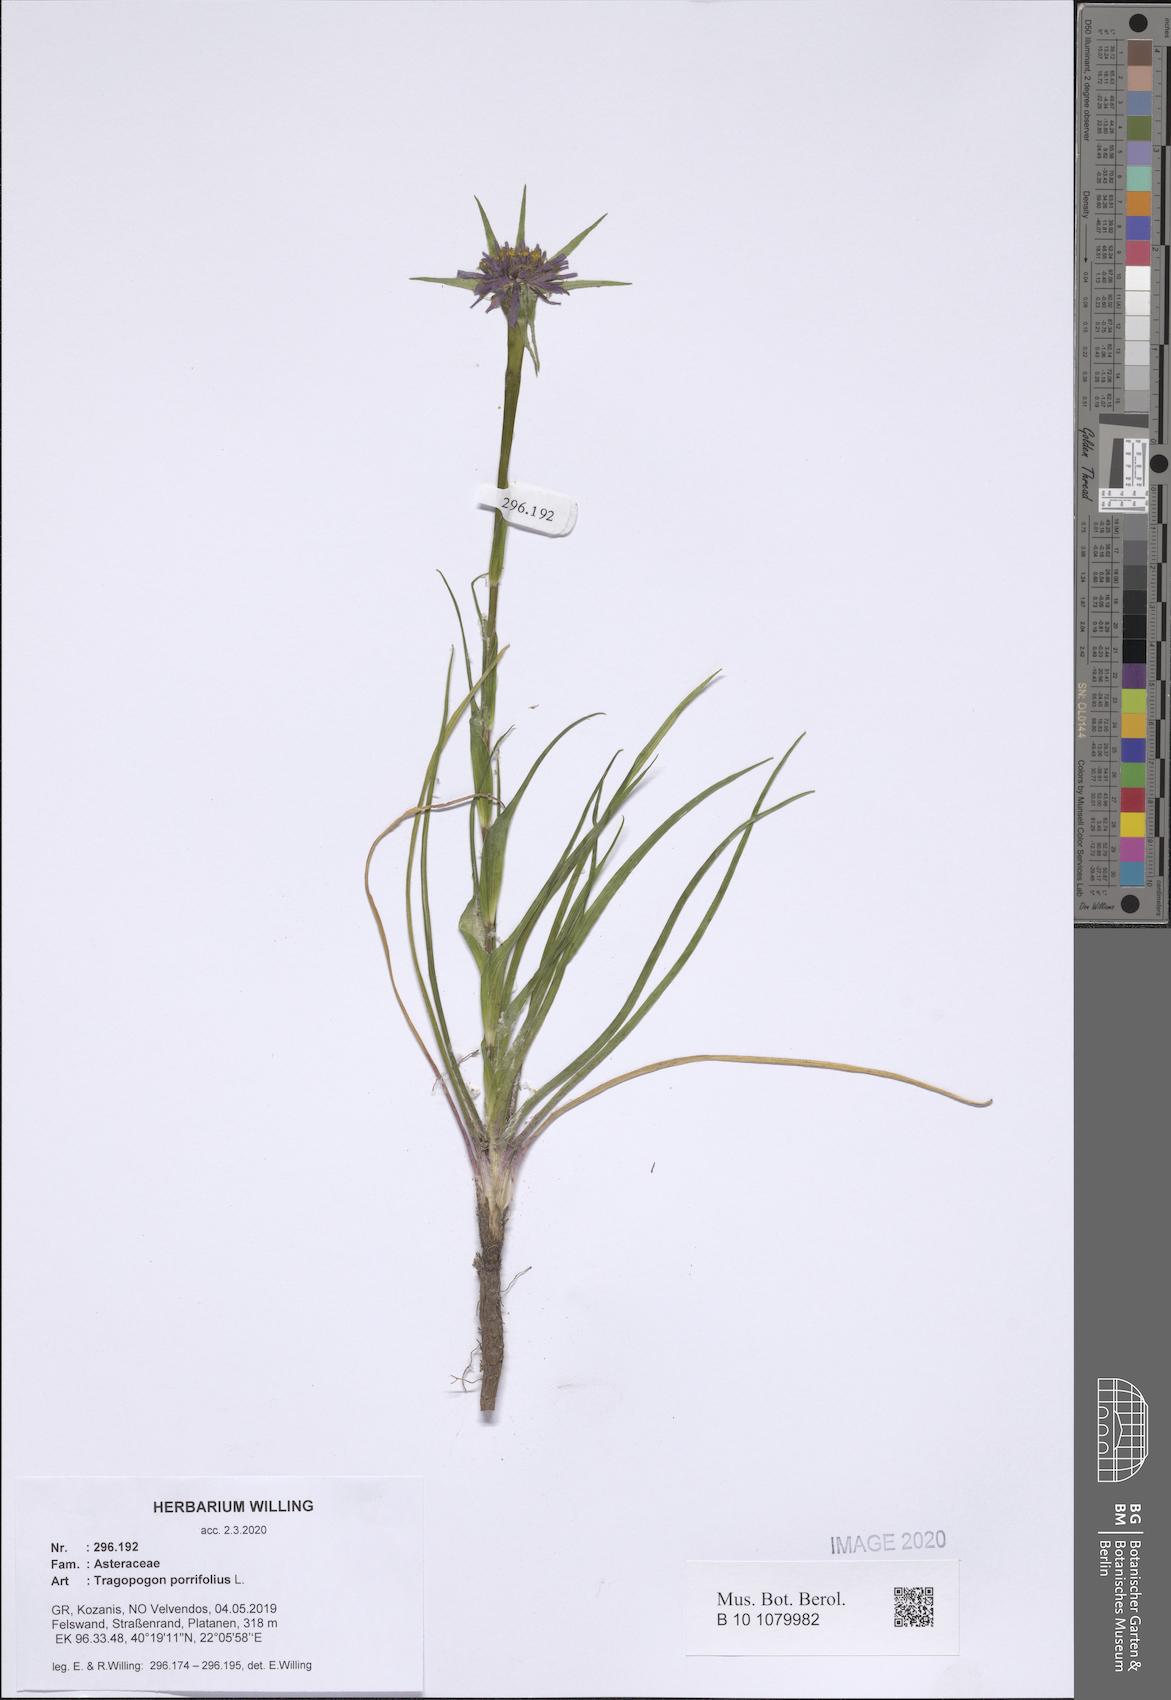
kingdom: Plantae
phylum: Tracheophyta
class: Magnoliopsida
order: Asterales
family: Asteraceae
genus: Tragopogon
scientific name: Tragopogon porrifolius
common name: Salsify
